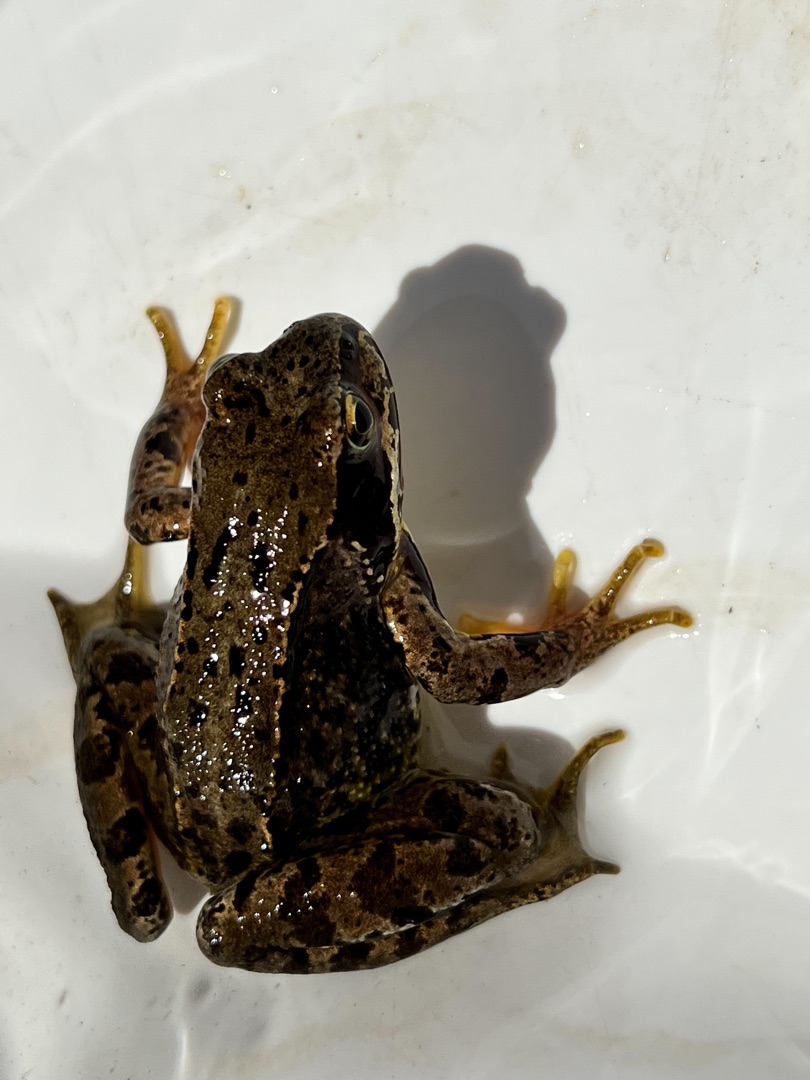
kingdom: Animalia
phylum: Chordata
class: Amphibia
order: Anura
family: Ranidae
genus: Rana
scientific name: Rana temporaria
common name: Butsnudet frø
